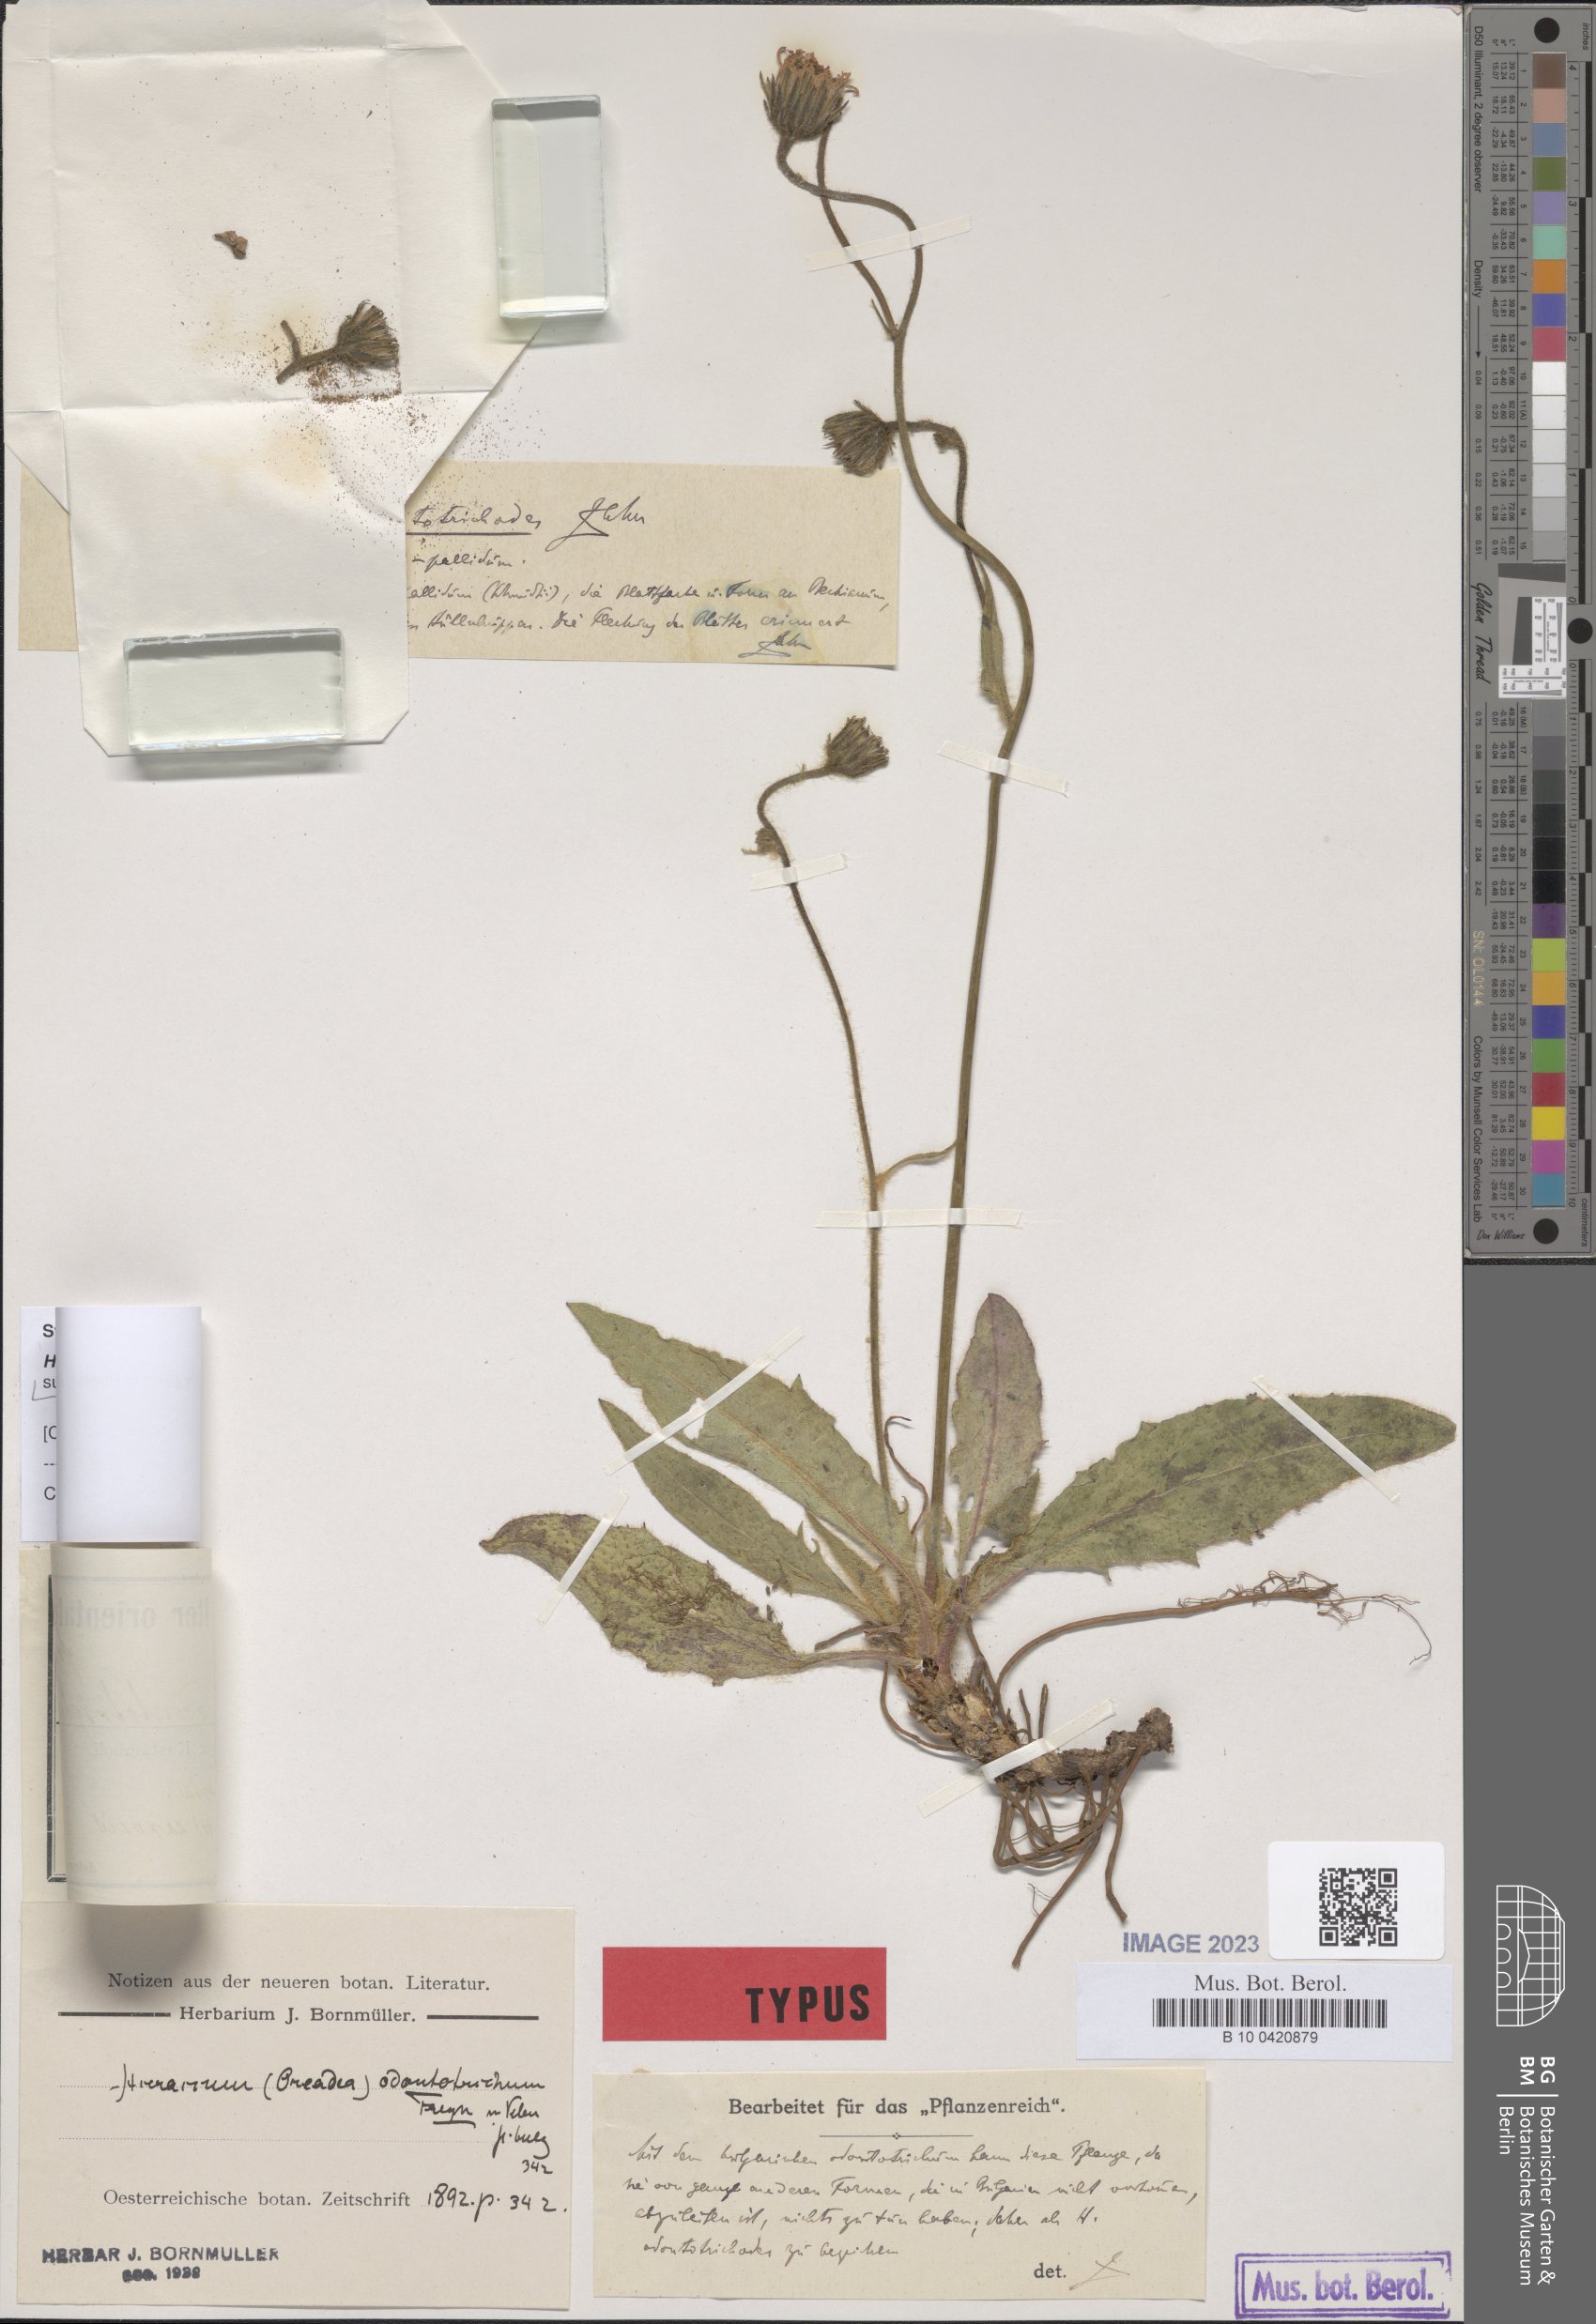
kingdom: Plantae
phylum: Tracheophyta
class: Magnoliopsida
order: Asterales
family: Asteraceae
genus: Hieracium
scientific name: Hieracium schmidtii
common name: Schmidt's hawkweed
